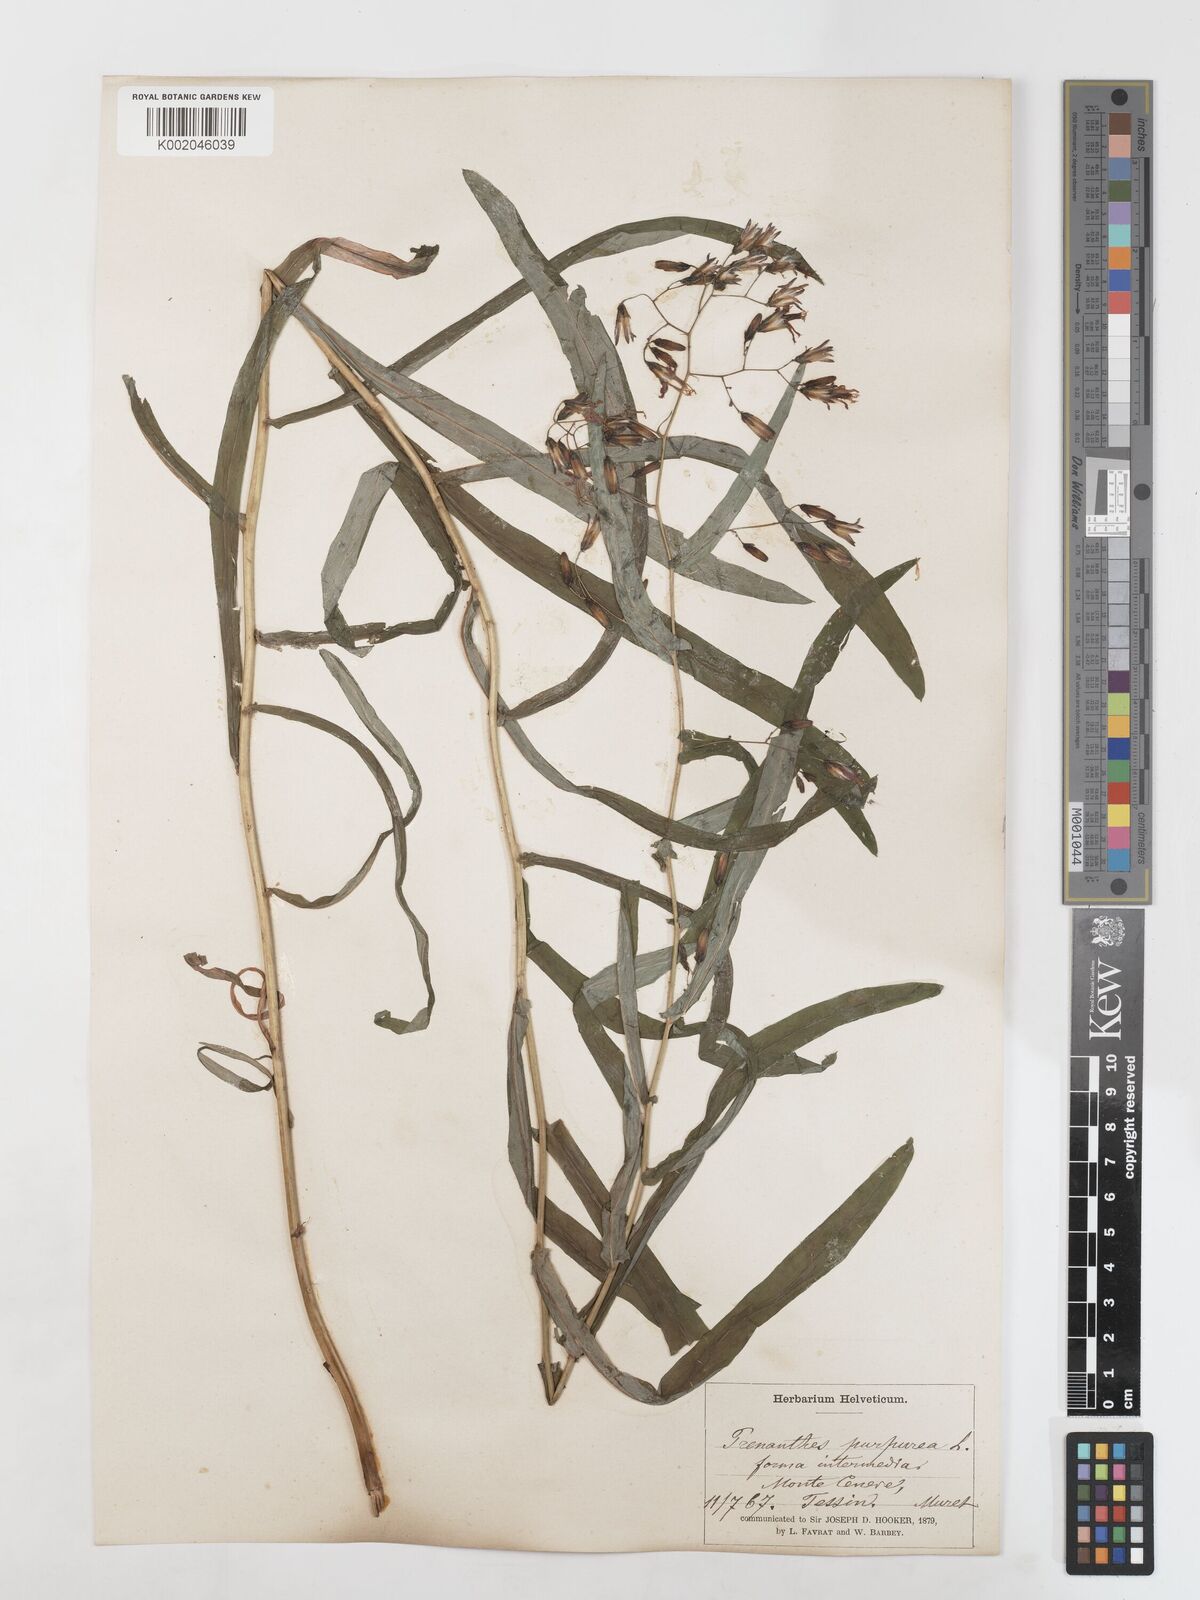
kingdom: Plantae
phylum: Tracheophyta
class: Magnoliopsida
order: Asterales
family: Asteraceae
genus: Prenanthes
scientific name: Prenanthes purpurea
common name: Purple lettuce
